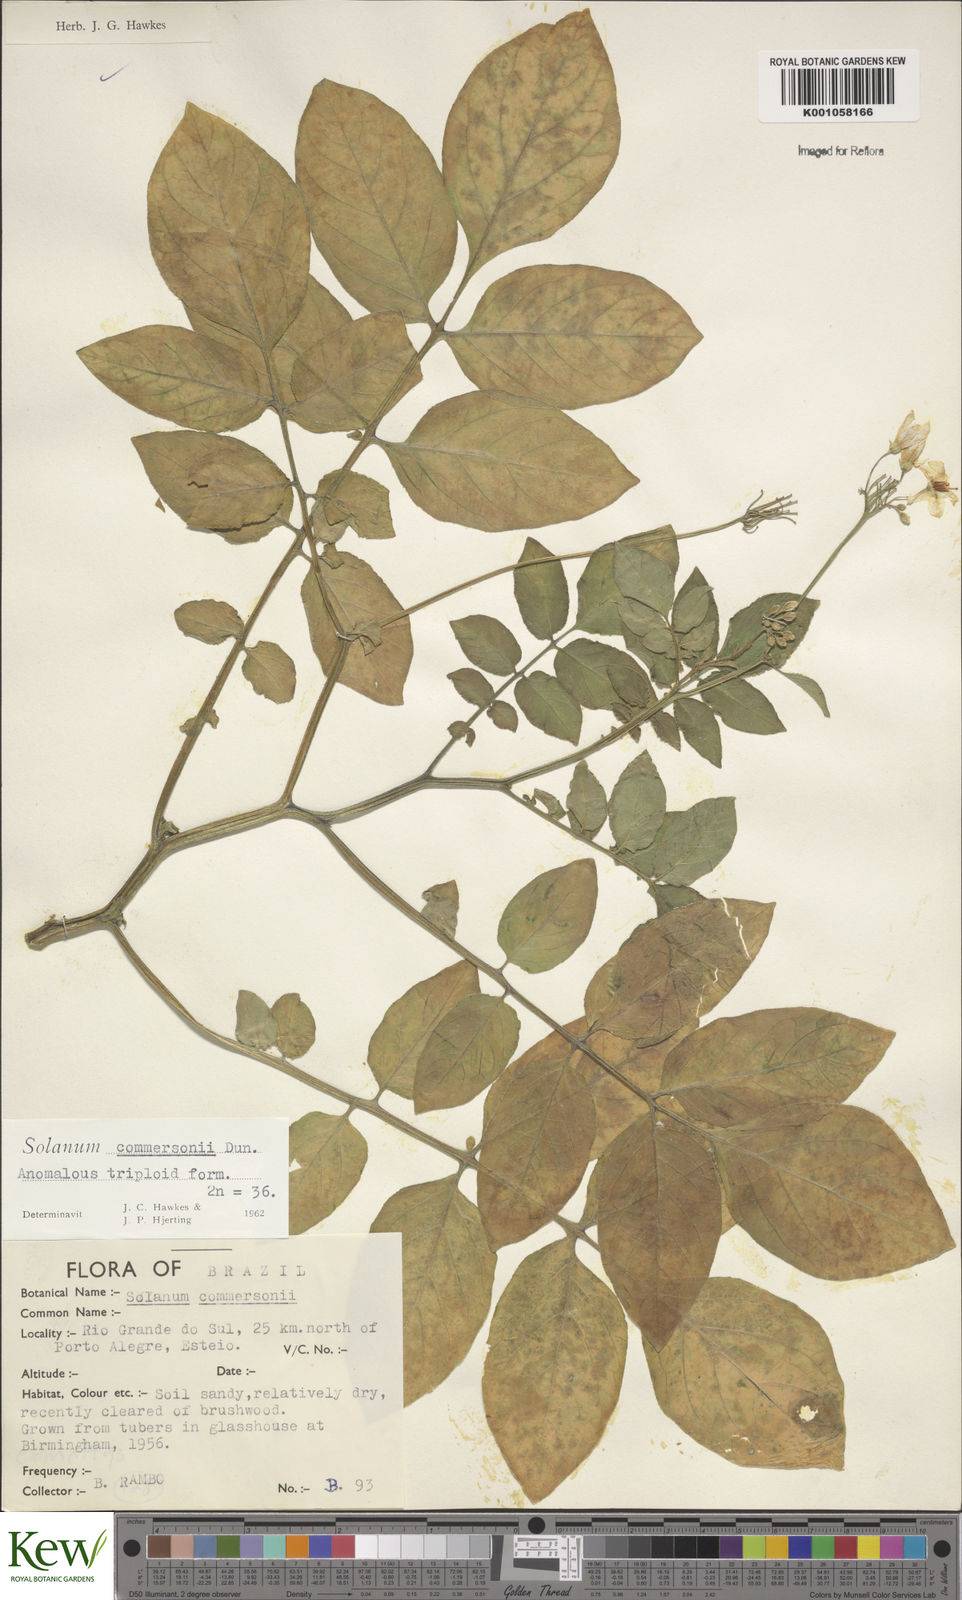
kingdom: Plantae
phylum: Tracheophyta
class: Magnoliopsida
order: Solanales
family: Solanaceae
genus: Solanum
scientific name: Solanum
